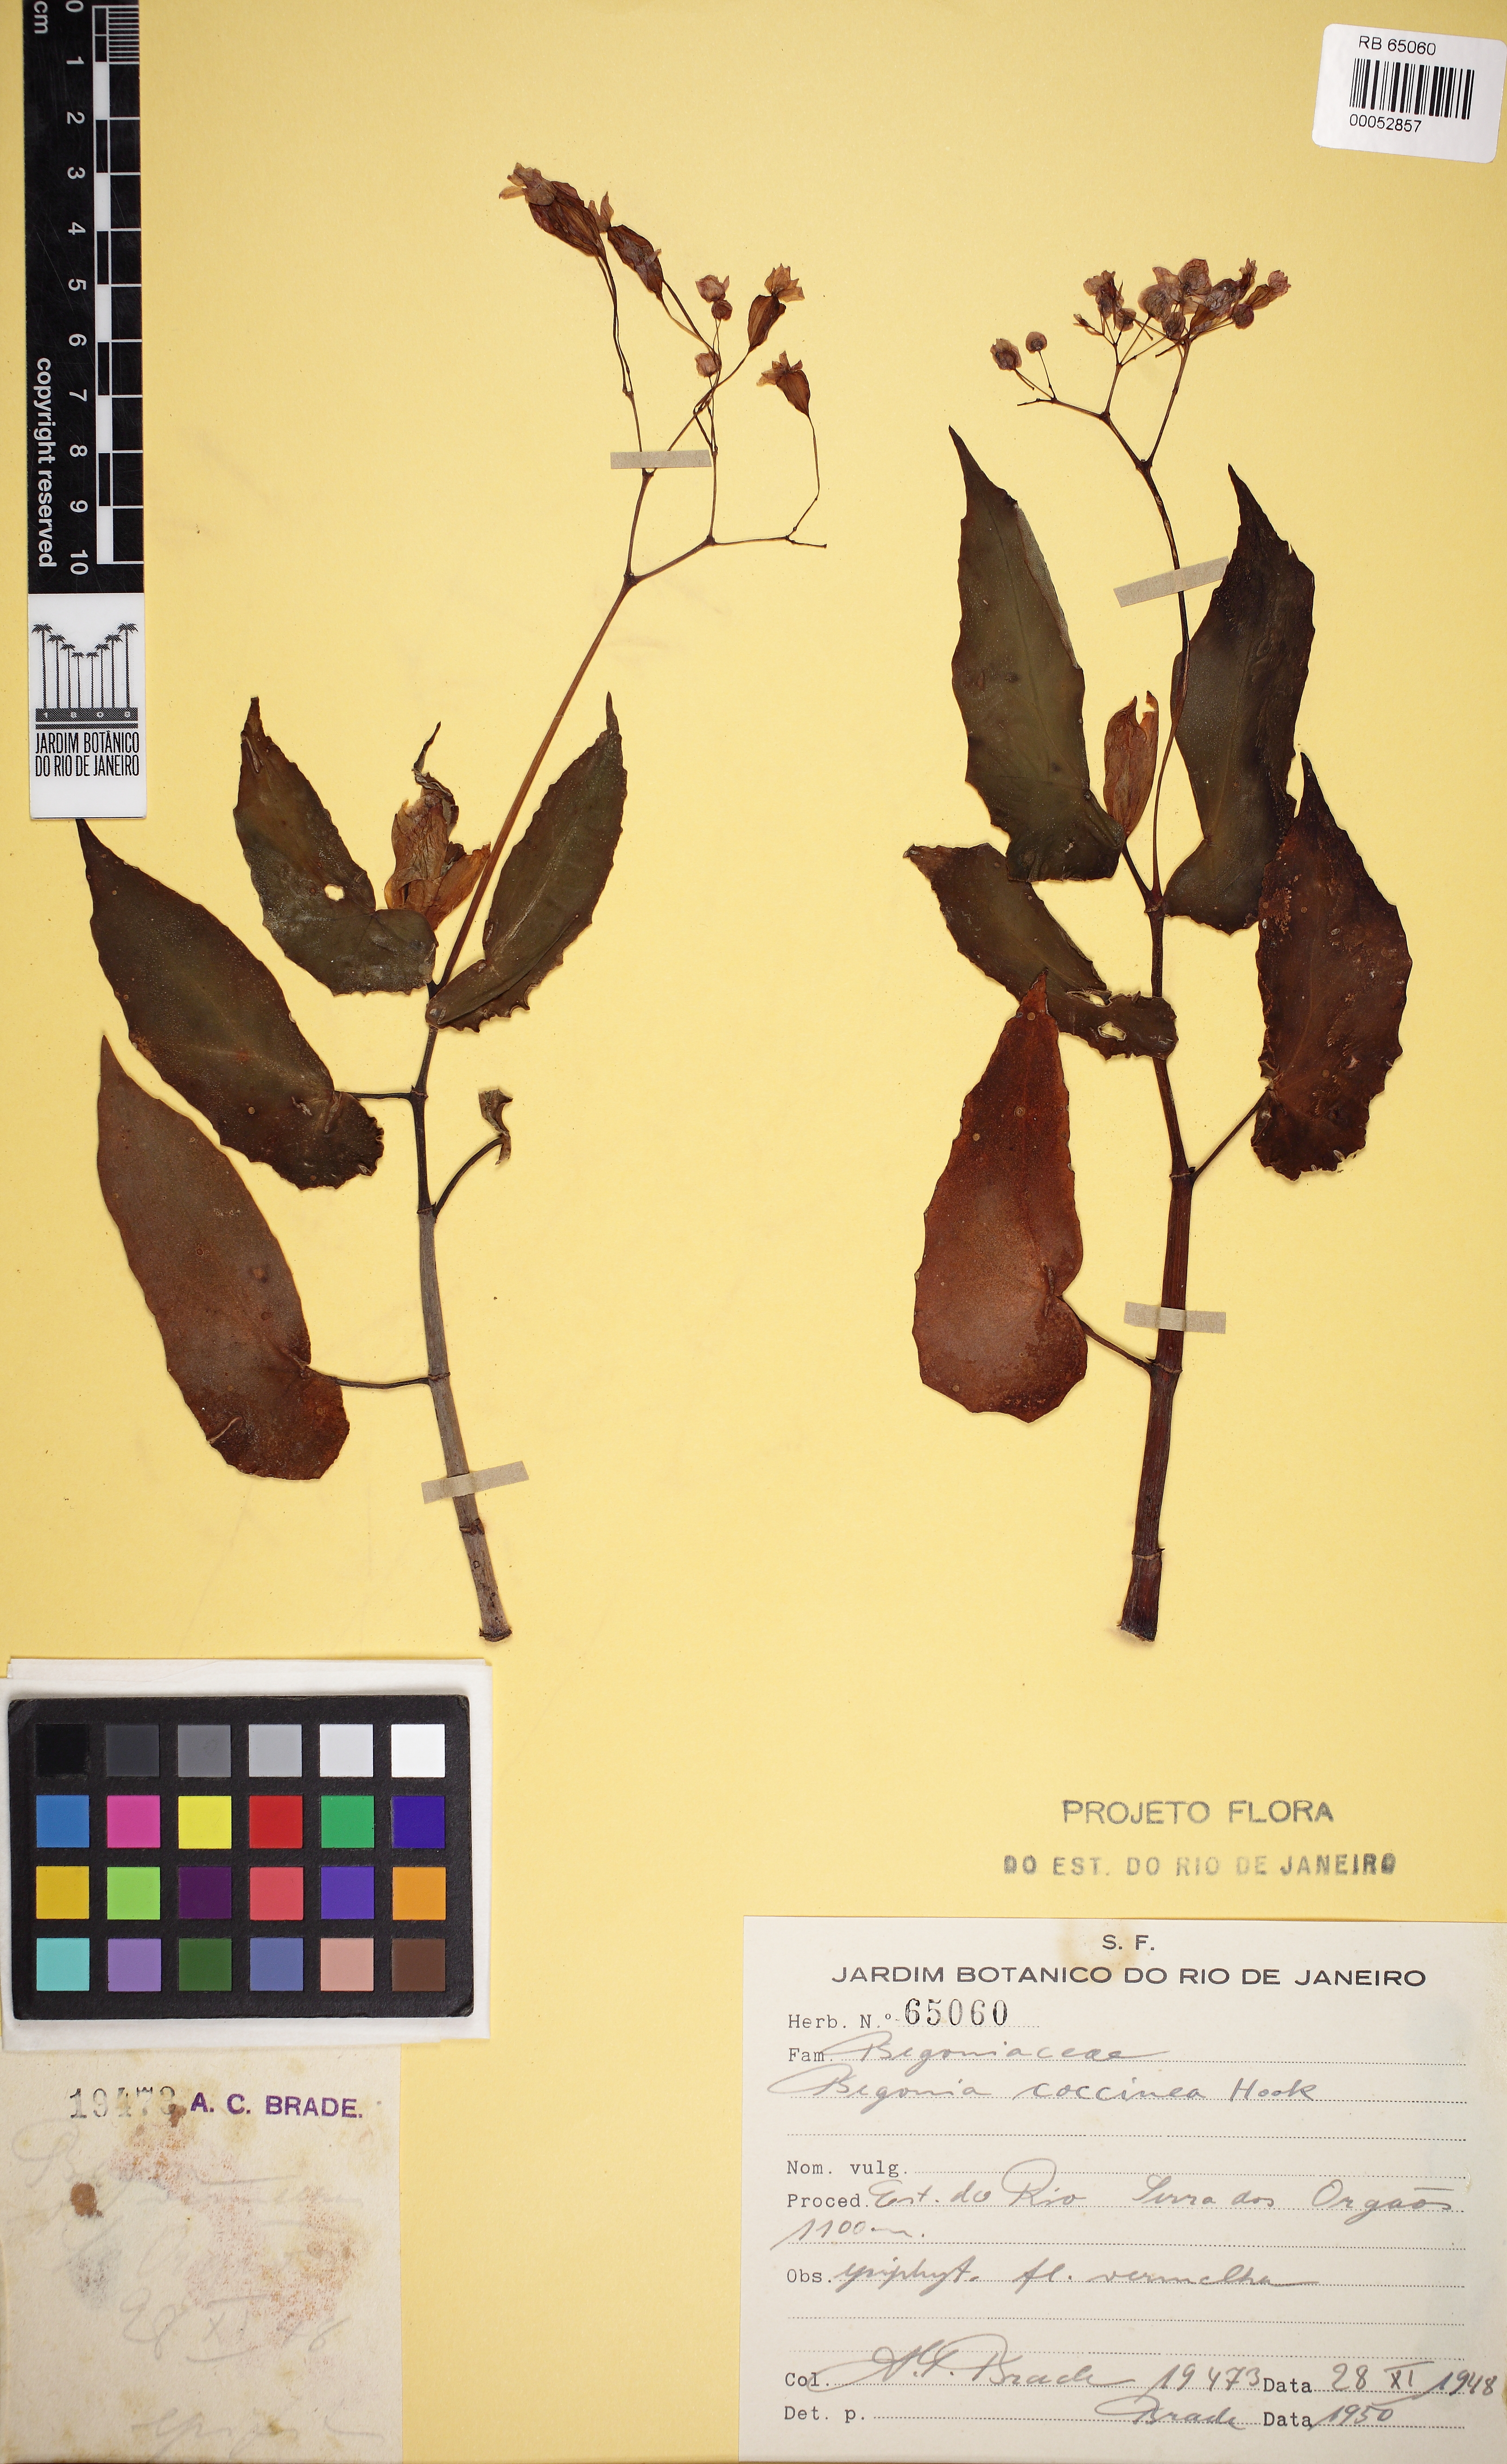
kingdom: Plantae
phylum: Tracheophyta
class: Magnoliopsida
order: Cucurbitales
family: Begoniaceae
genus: Begonia
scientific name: Begonia coccinea
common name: Angel-wing begonia
